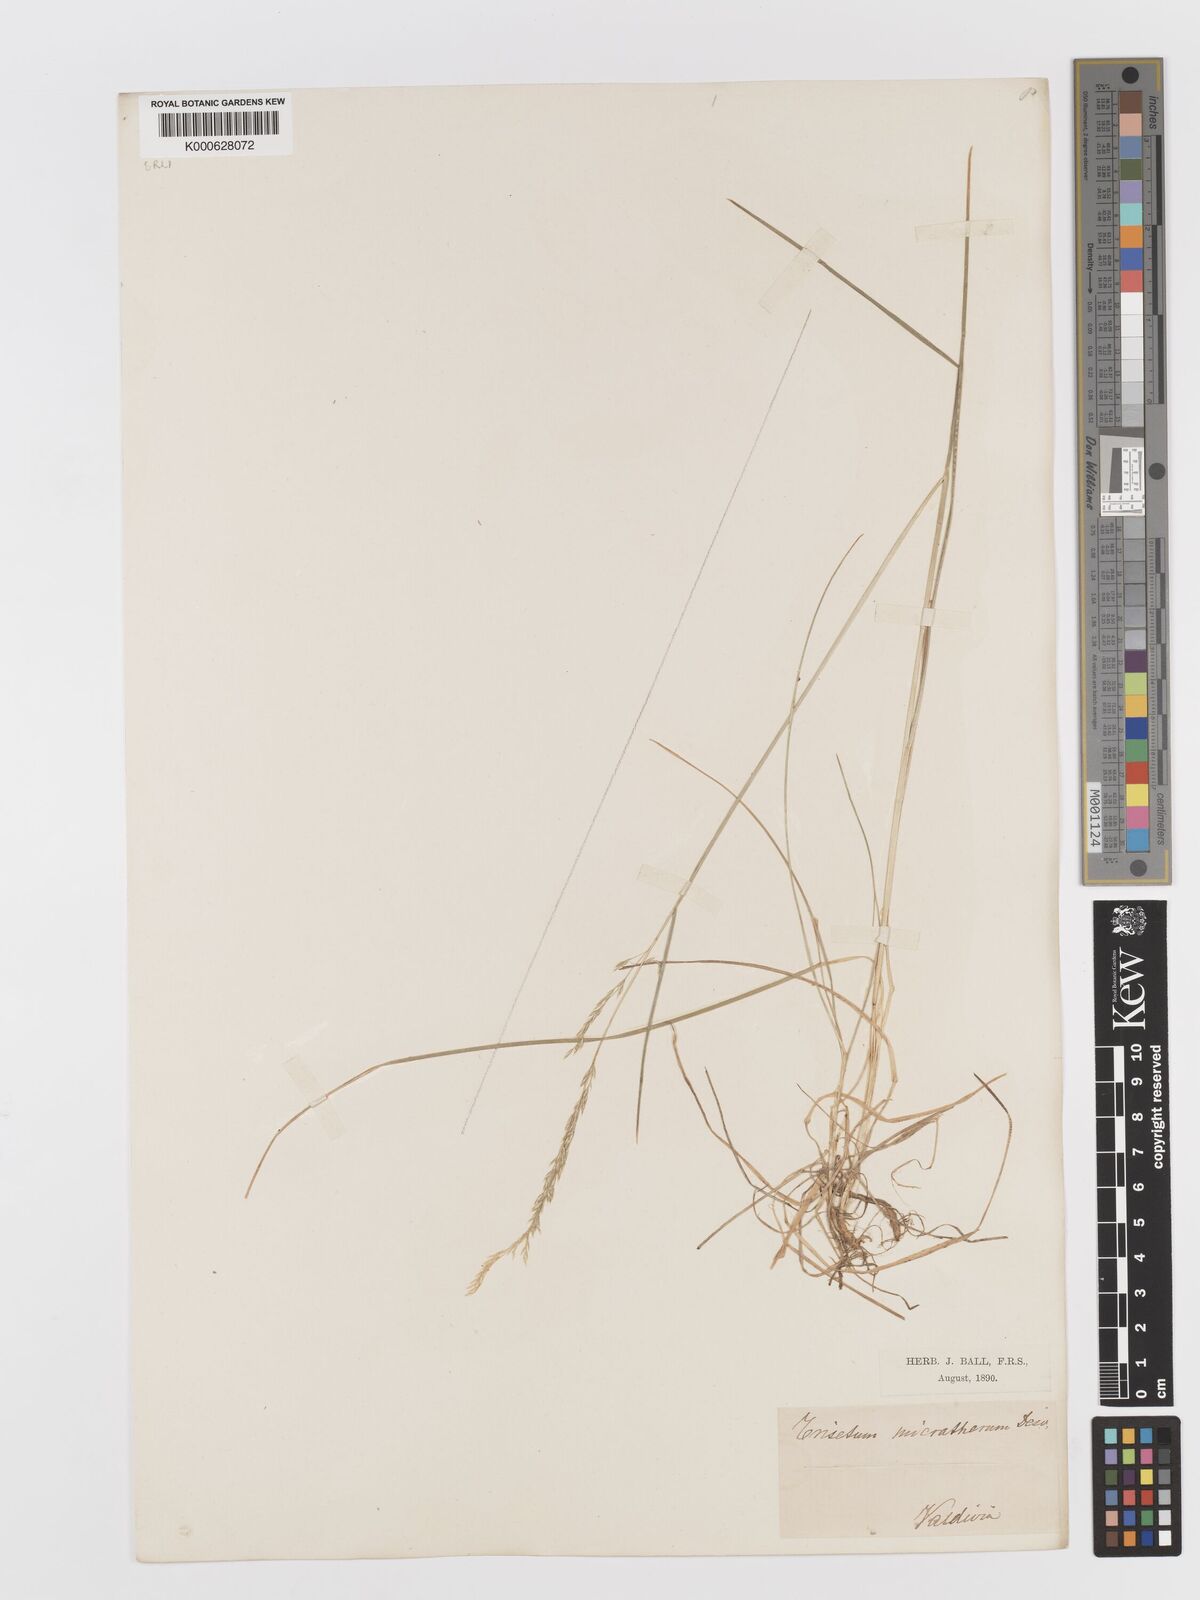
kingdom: Plantae
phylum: Tracheophyta
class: Liliopsida
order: Poales
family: Poaceae
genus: Cinnagrostis
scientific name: Cinnagrostis micrathera
